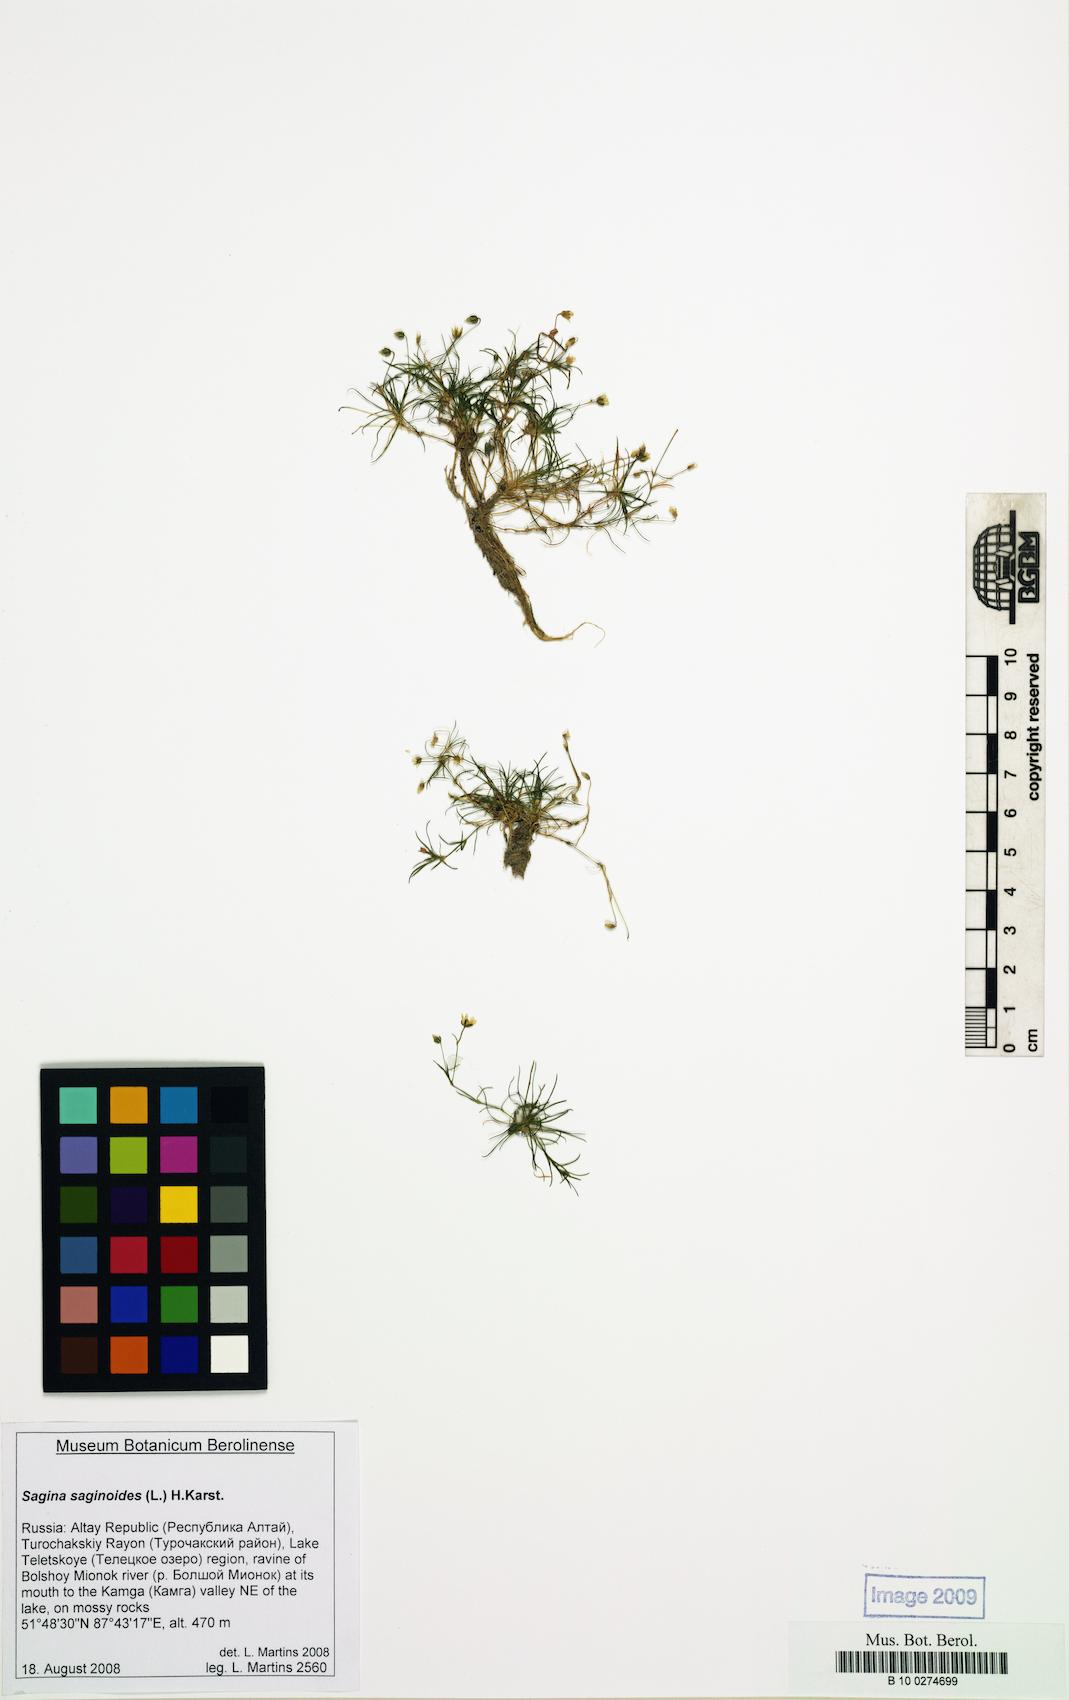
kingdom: Plantae
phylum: Tracheophyta
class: Magnoliopsida
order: Caryophyllales
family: Caryophyllaceae
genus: Sagina
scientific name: Sagina saginoides
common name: Alpine pearlwort
